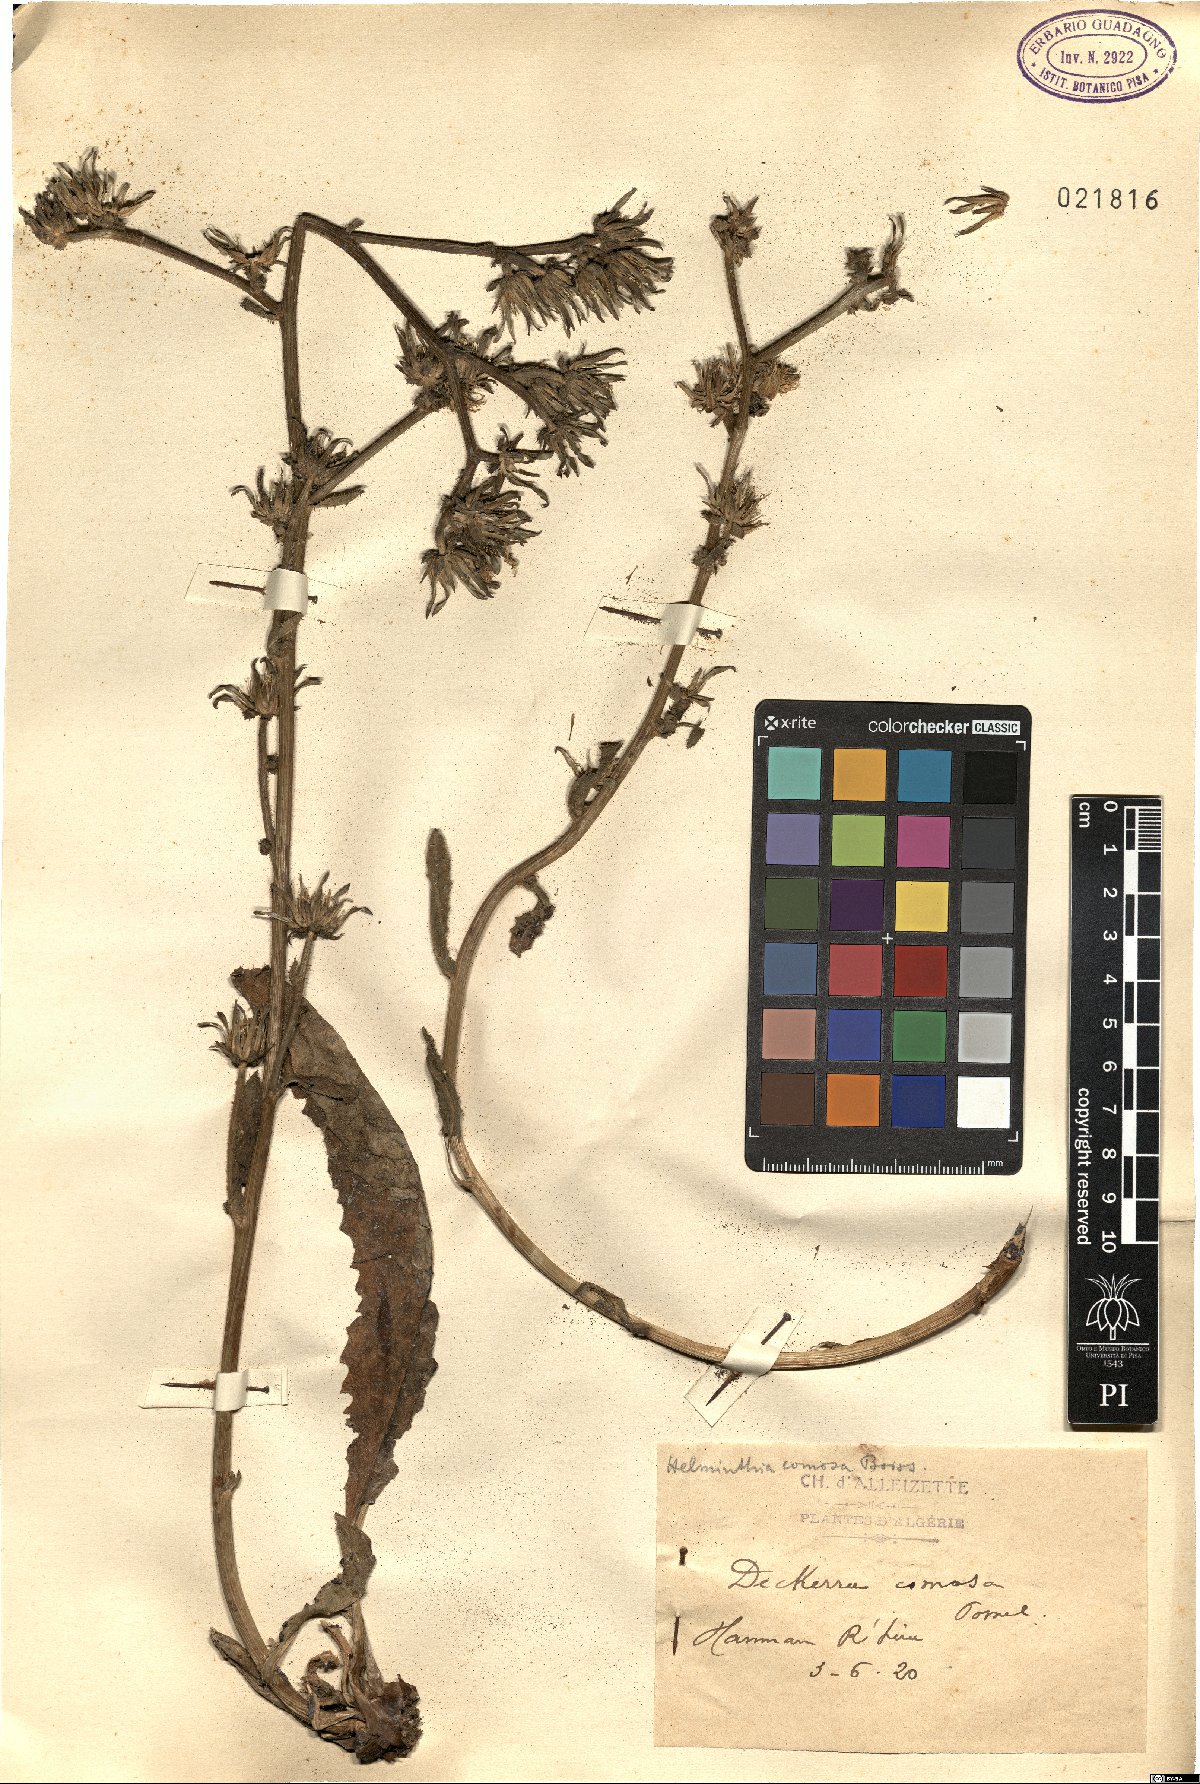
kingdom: Plantae
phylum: Tracheophyta
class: Magnoliopsida
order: Asterales
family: Asteraceae
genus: Helminthotheca
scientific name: Helminthotheca comosa
